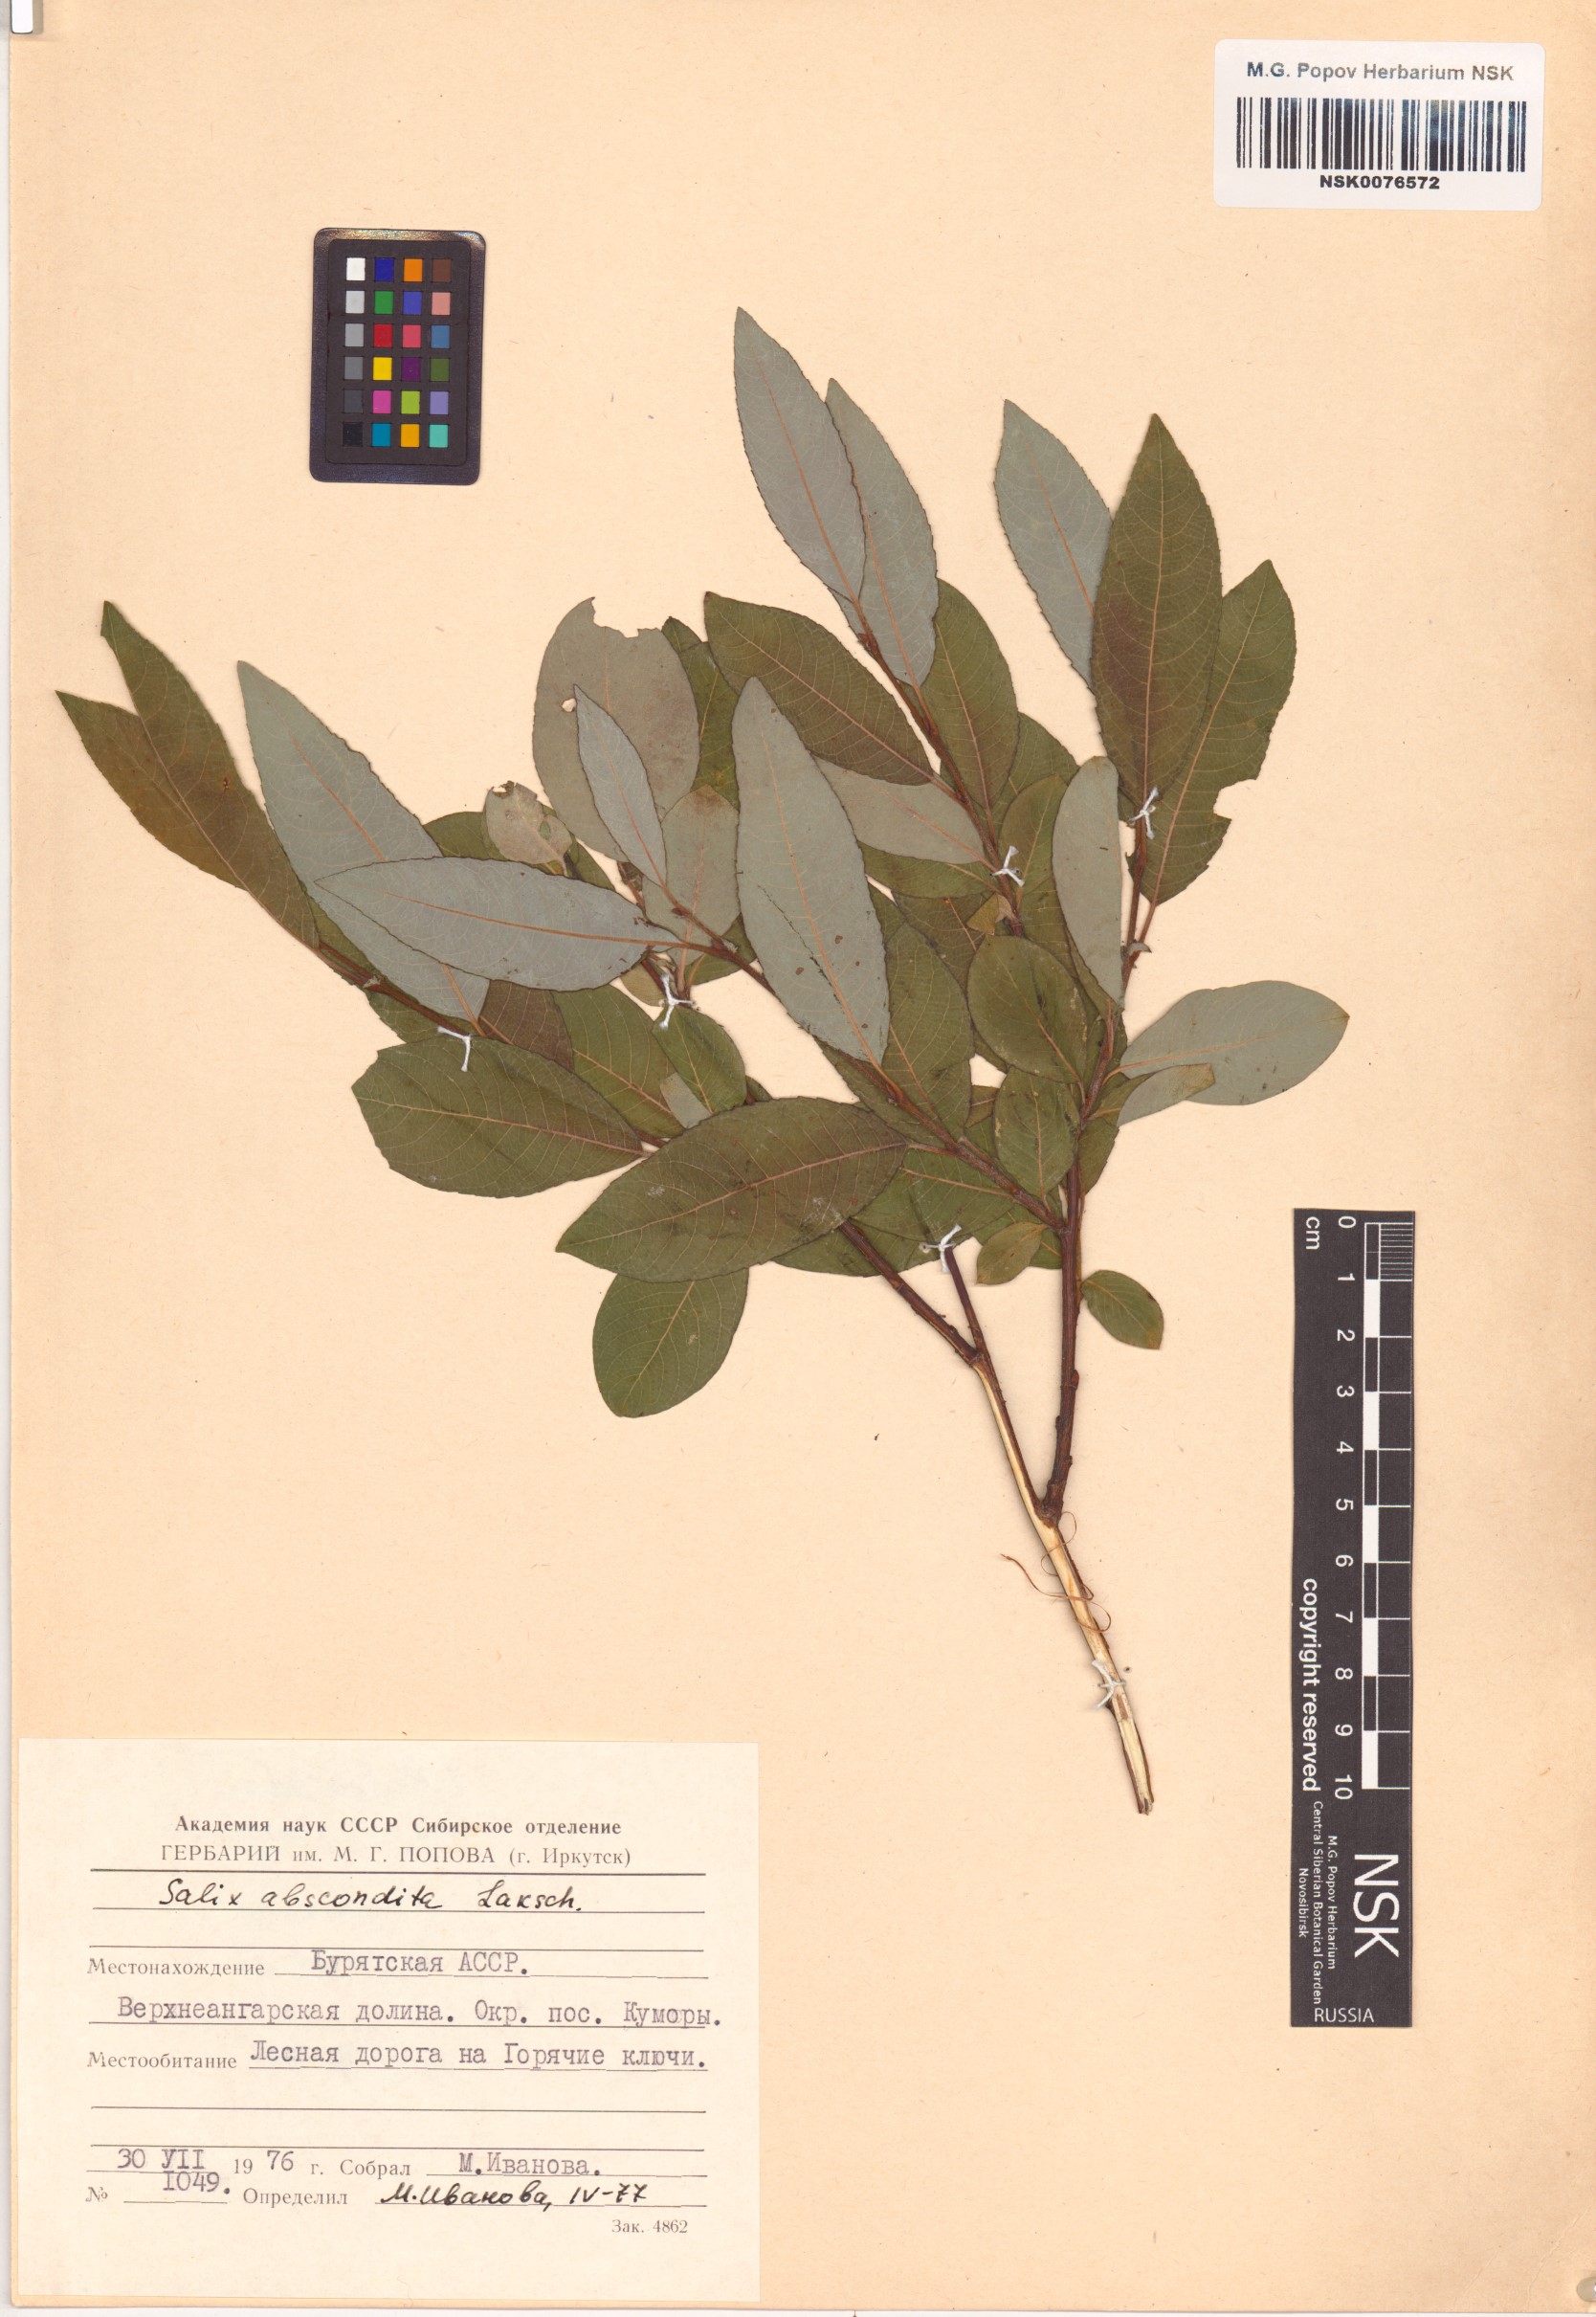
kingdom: Plantae
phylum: Tracheophyta
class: Magnoliopsida
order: Malpighiales
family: Salicaceae
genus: Salix
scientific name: Salix abscondita
